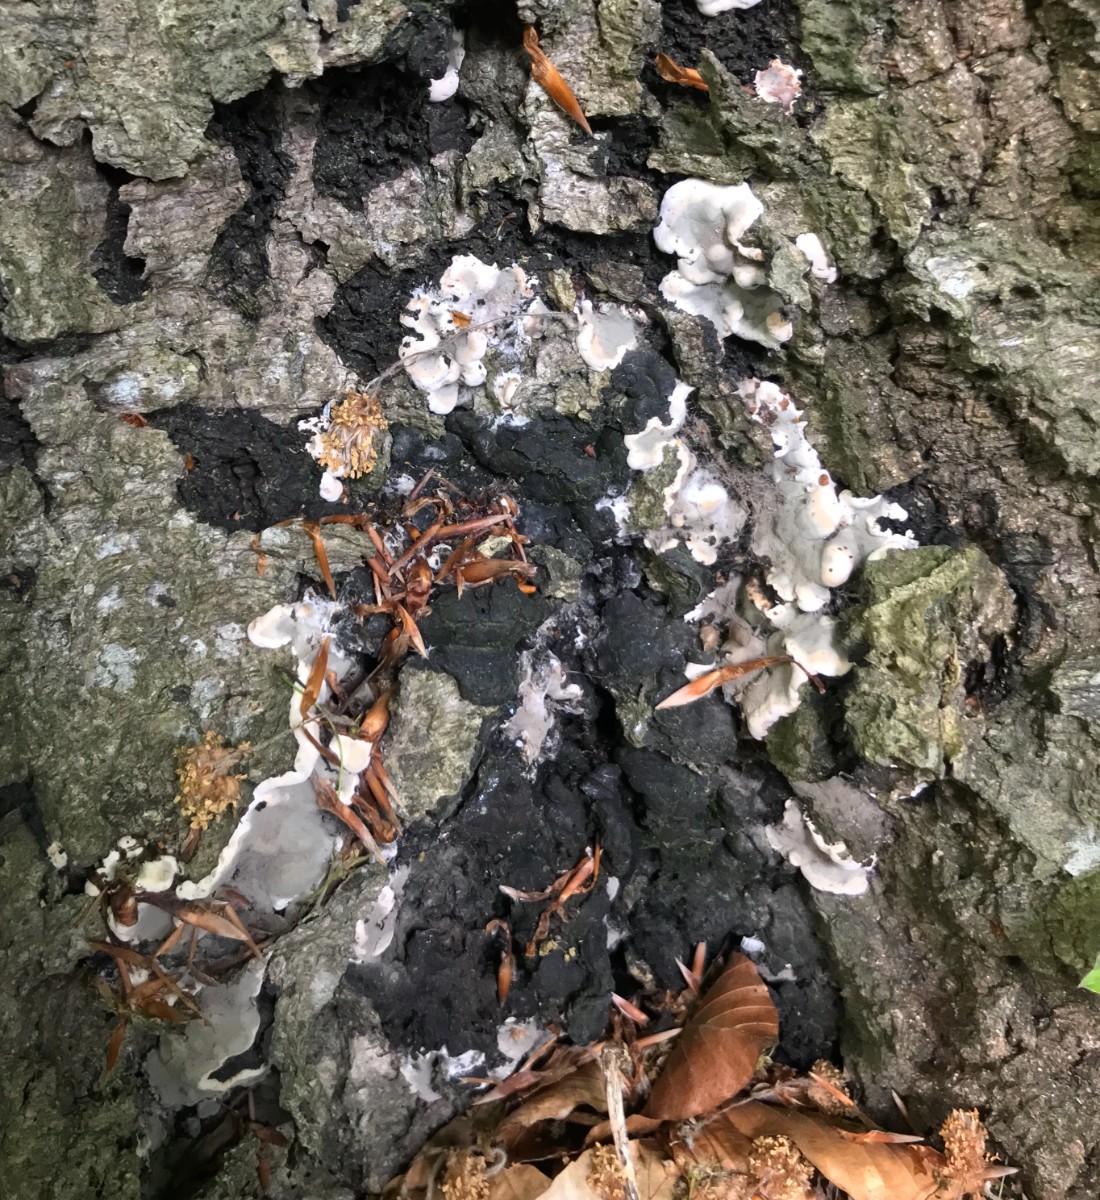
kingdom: Fungi
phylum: Ascomycota
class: Sordariomycetes
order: Xylariales
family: Xylariaceae
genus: Kretzschmaria
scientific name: Kretzschmaria deusta
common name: stor kulsvamp
